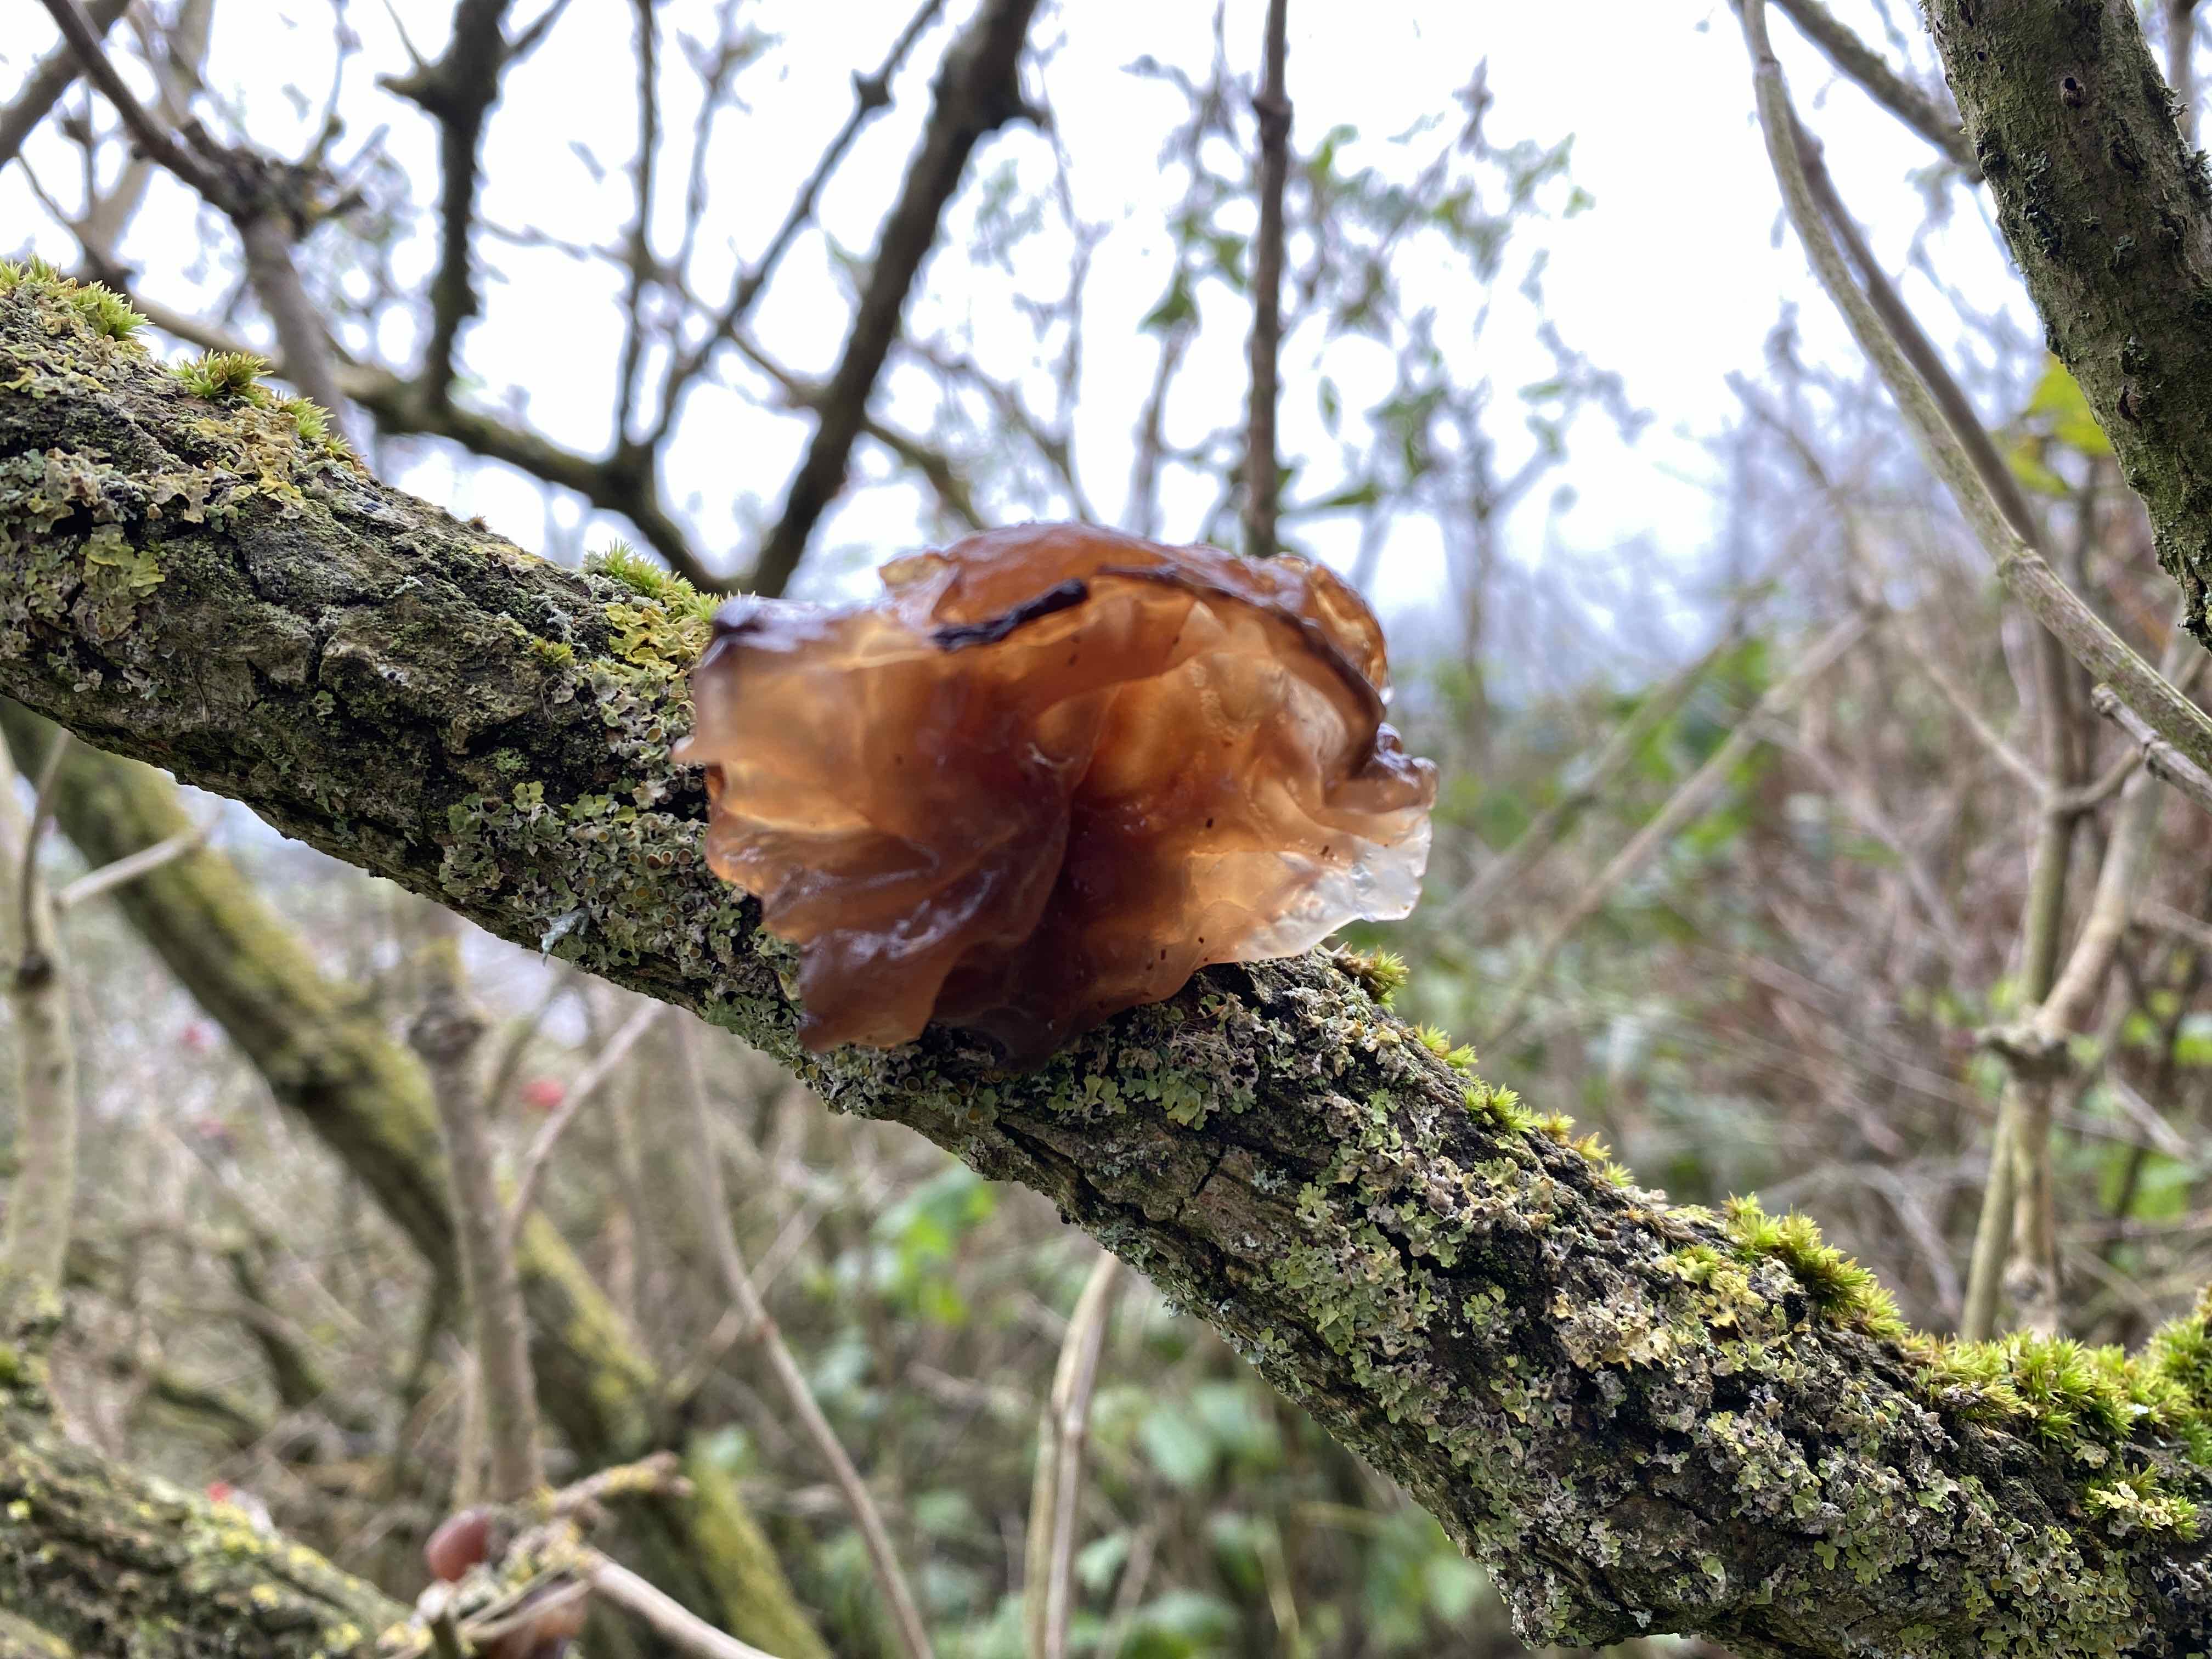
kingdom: Fungi
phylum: Basidiomycota
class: Agaricomycetes
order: Auriculariales
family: Auriculariaceae
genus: Auricularia
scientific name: Auricularia auricula-judae
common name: almindelig judasøre
